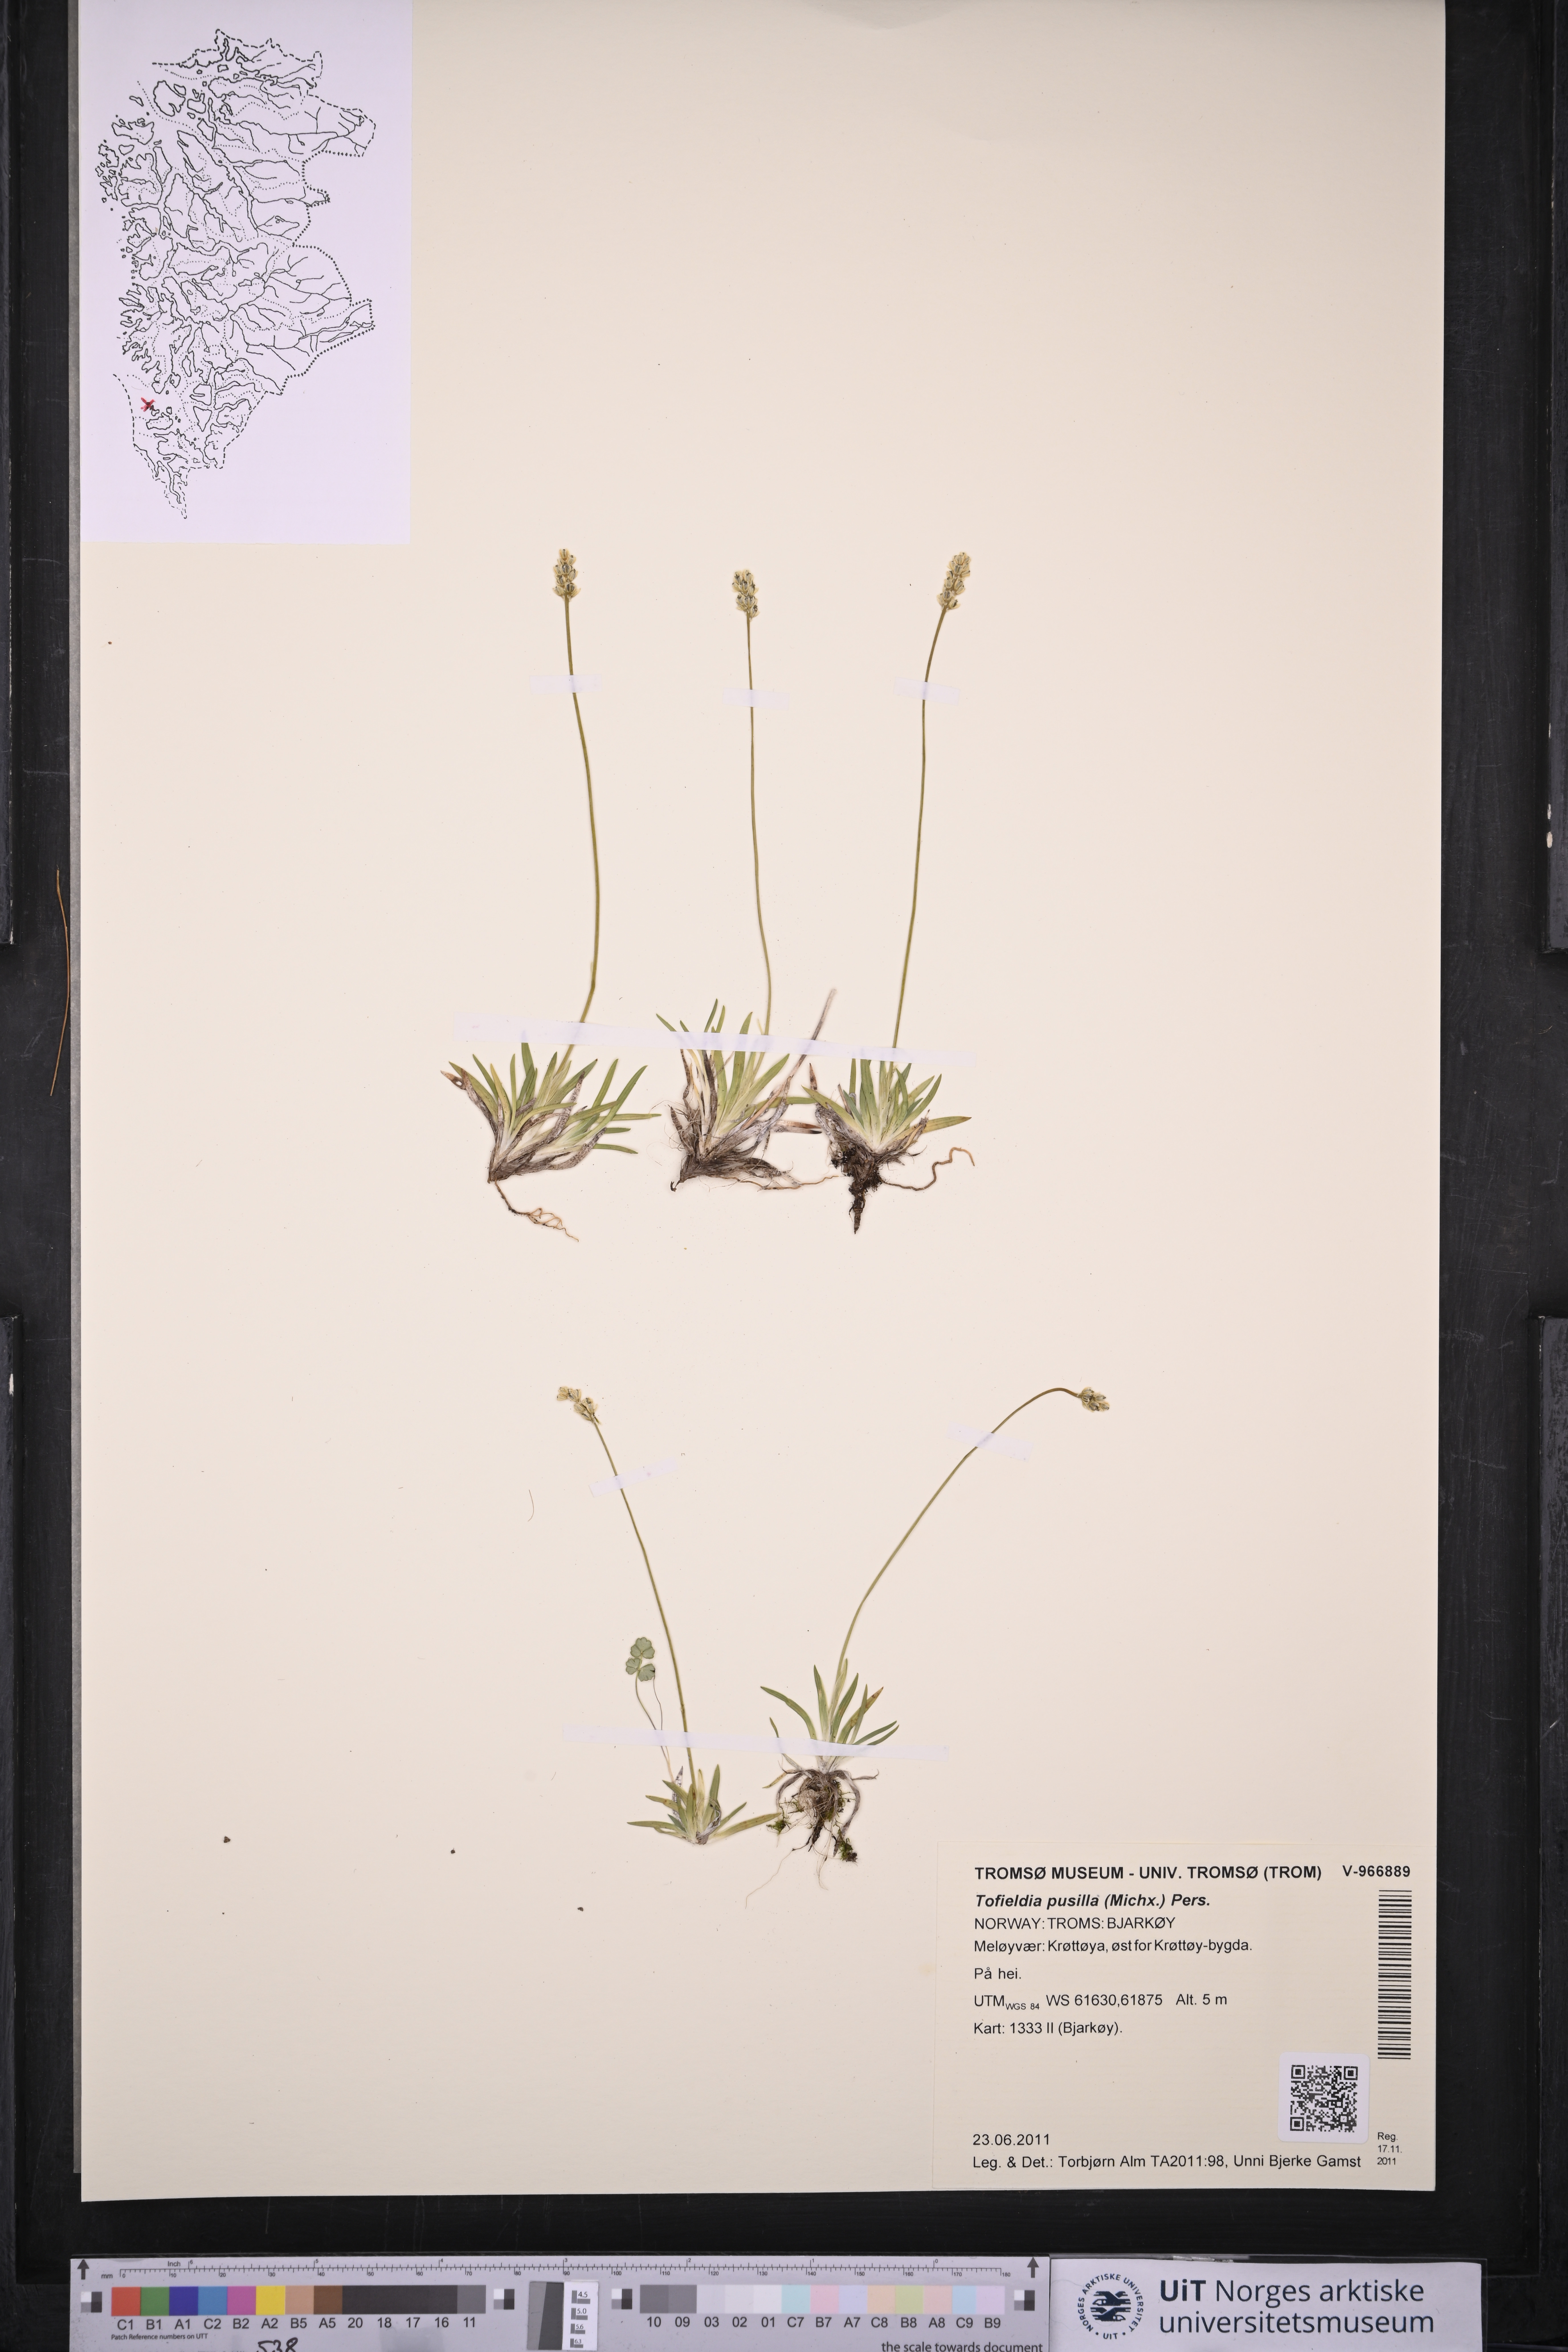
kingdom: Plantae
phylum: Tracheophyta
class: Liliopsida
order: Alismatales
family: Tofieldiaceae
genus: Tofieldia
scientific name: Tofieldia pusilla
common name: Scottish false asphodel
